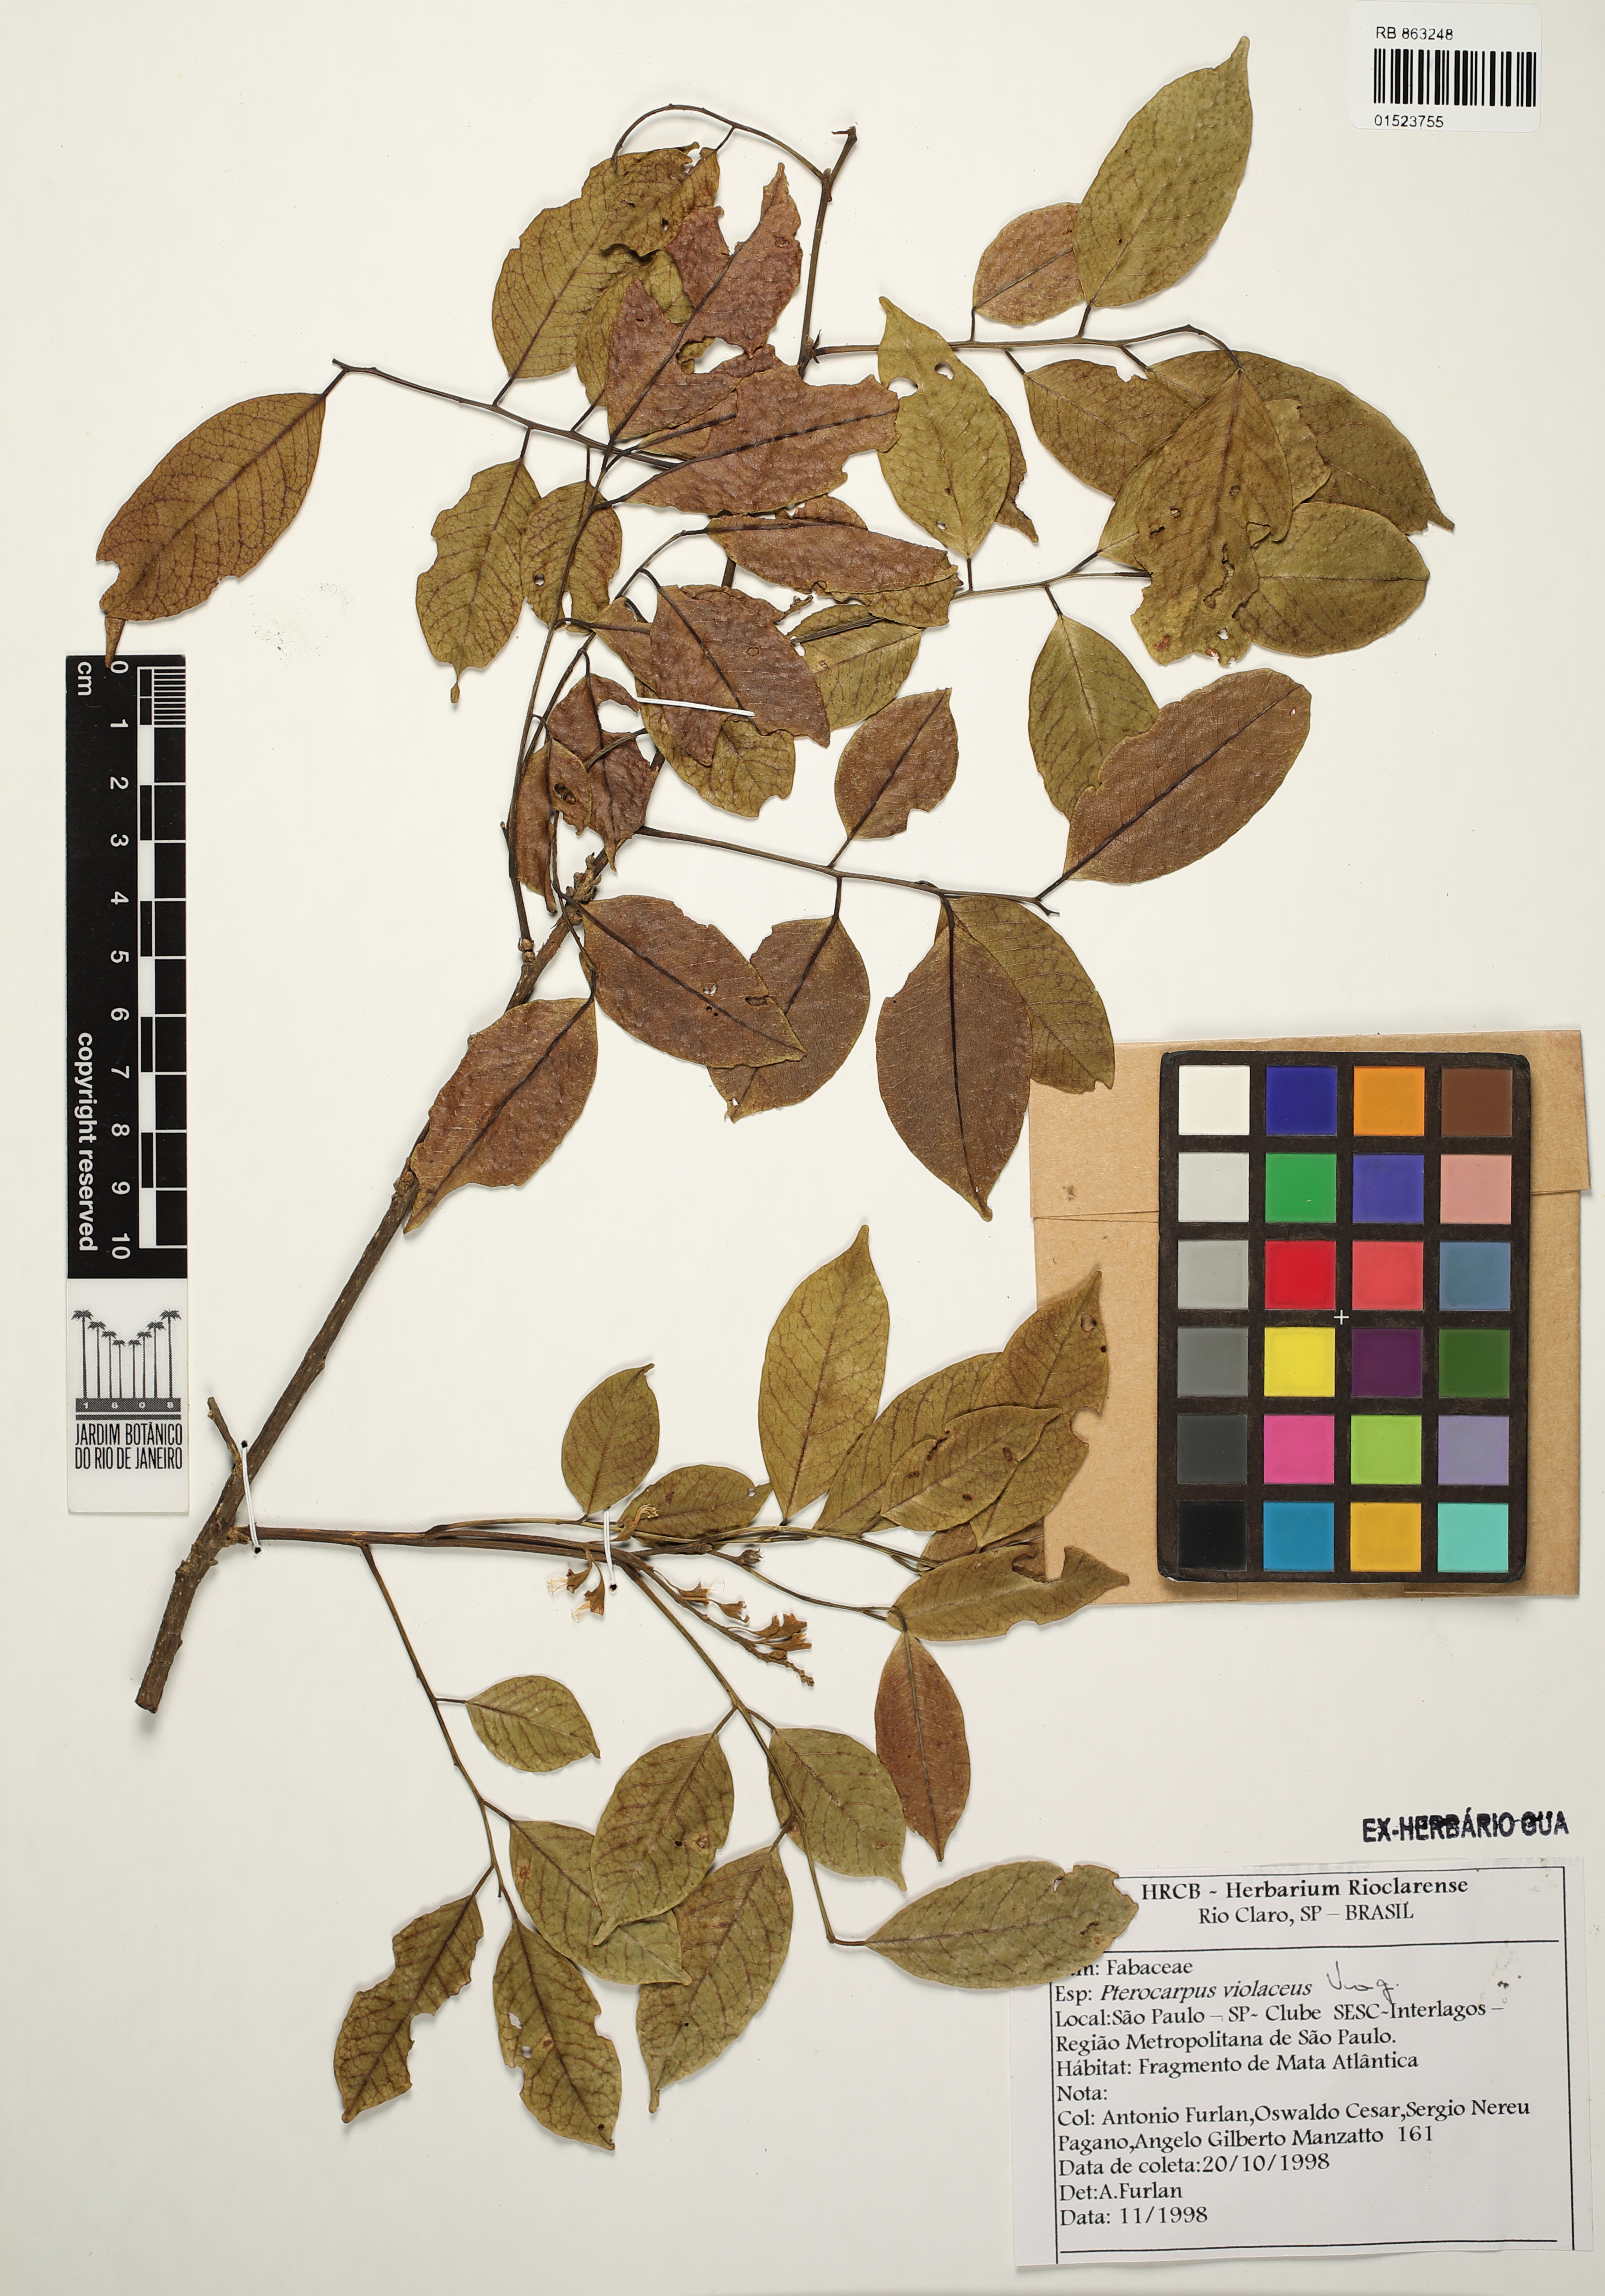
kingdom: Plantae
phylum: Tracheophyta
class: Magnoliopsida
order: Fabales
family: Fabaceae
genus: Pterocarpus
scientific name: Pterocarpus rohrii
